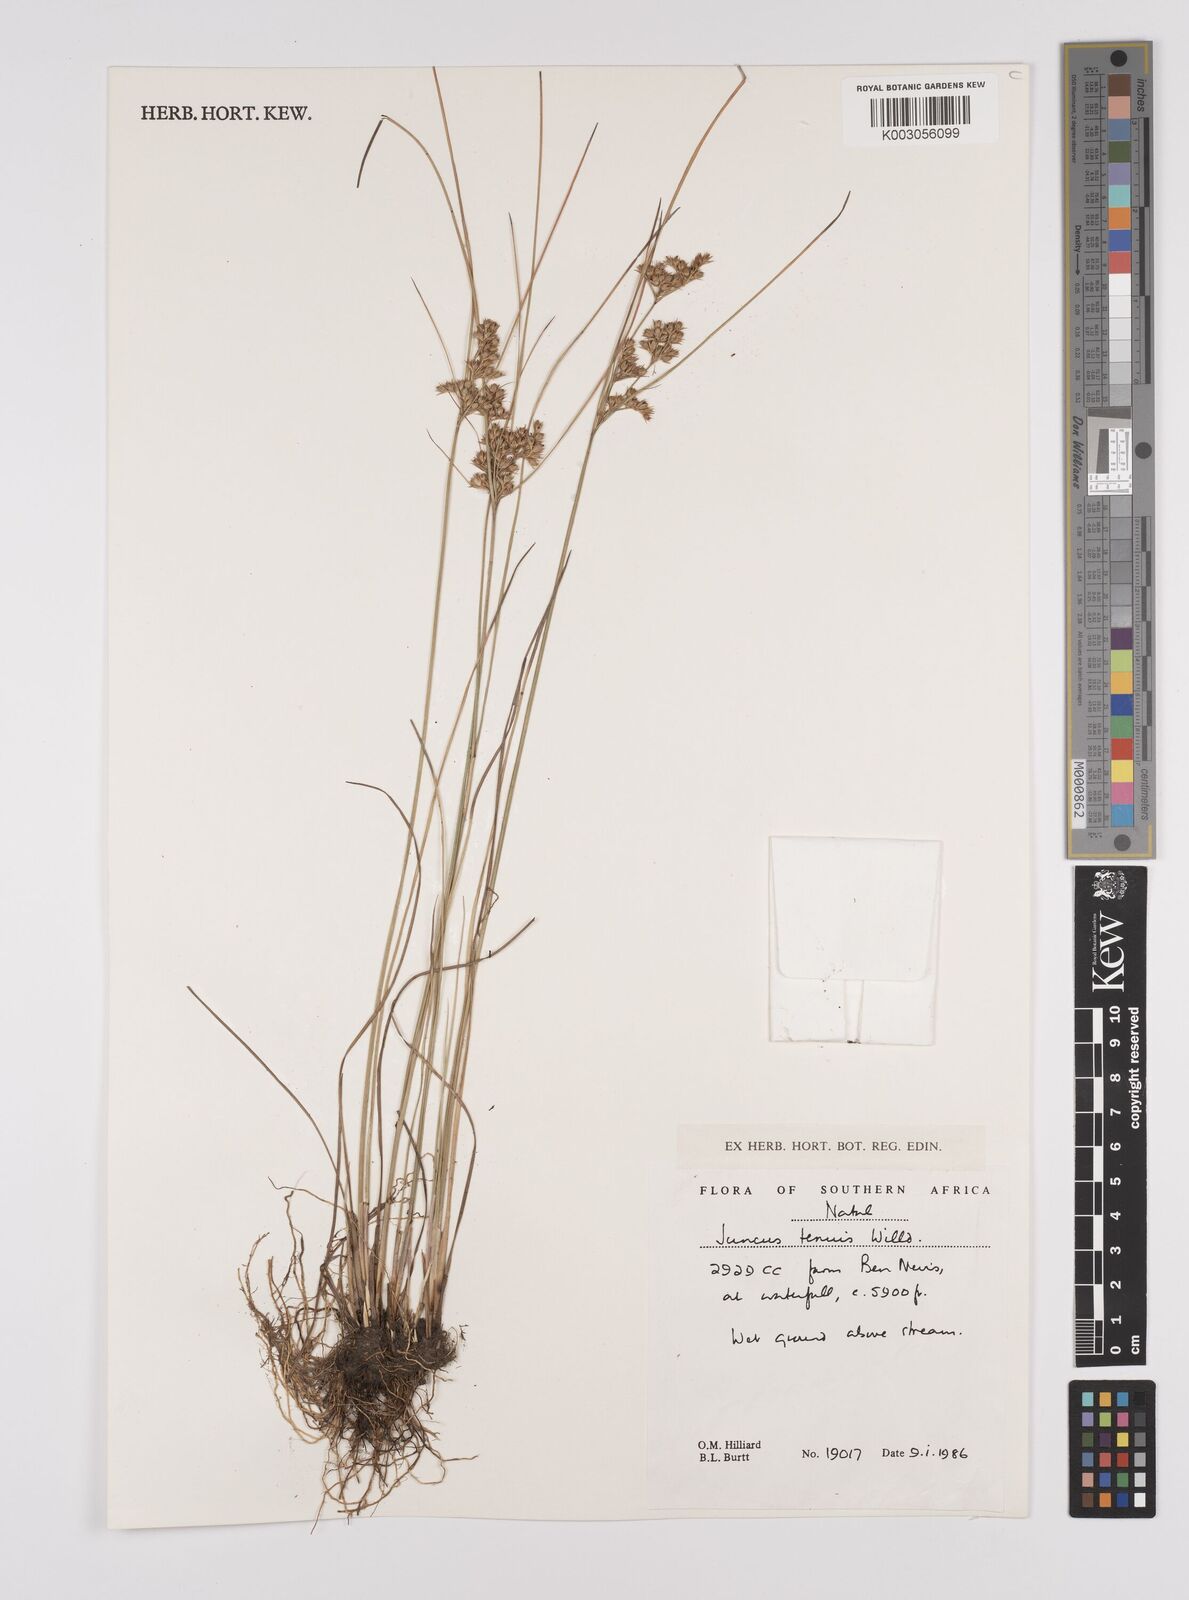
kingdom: Plantae
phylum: Tracheophyta
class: Liliopsida
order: Poales
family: Juncaceae
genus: Juncus
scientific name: Juncus tenuis
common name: Slender rush
